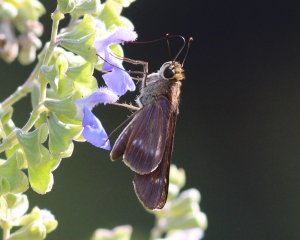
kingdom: Animalia
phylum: Arthropoda
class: Insecta
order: Lepidoptera
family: Hesperiidae
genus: Turesis
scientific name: Turesis lucas
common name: Purple-washed Skipper
